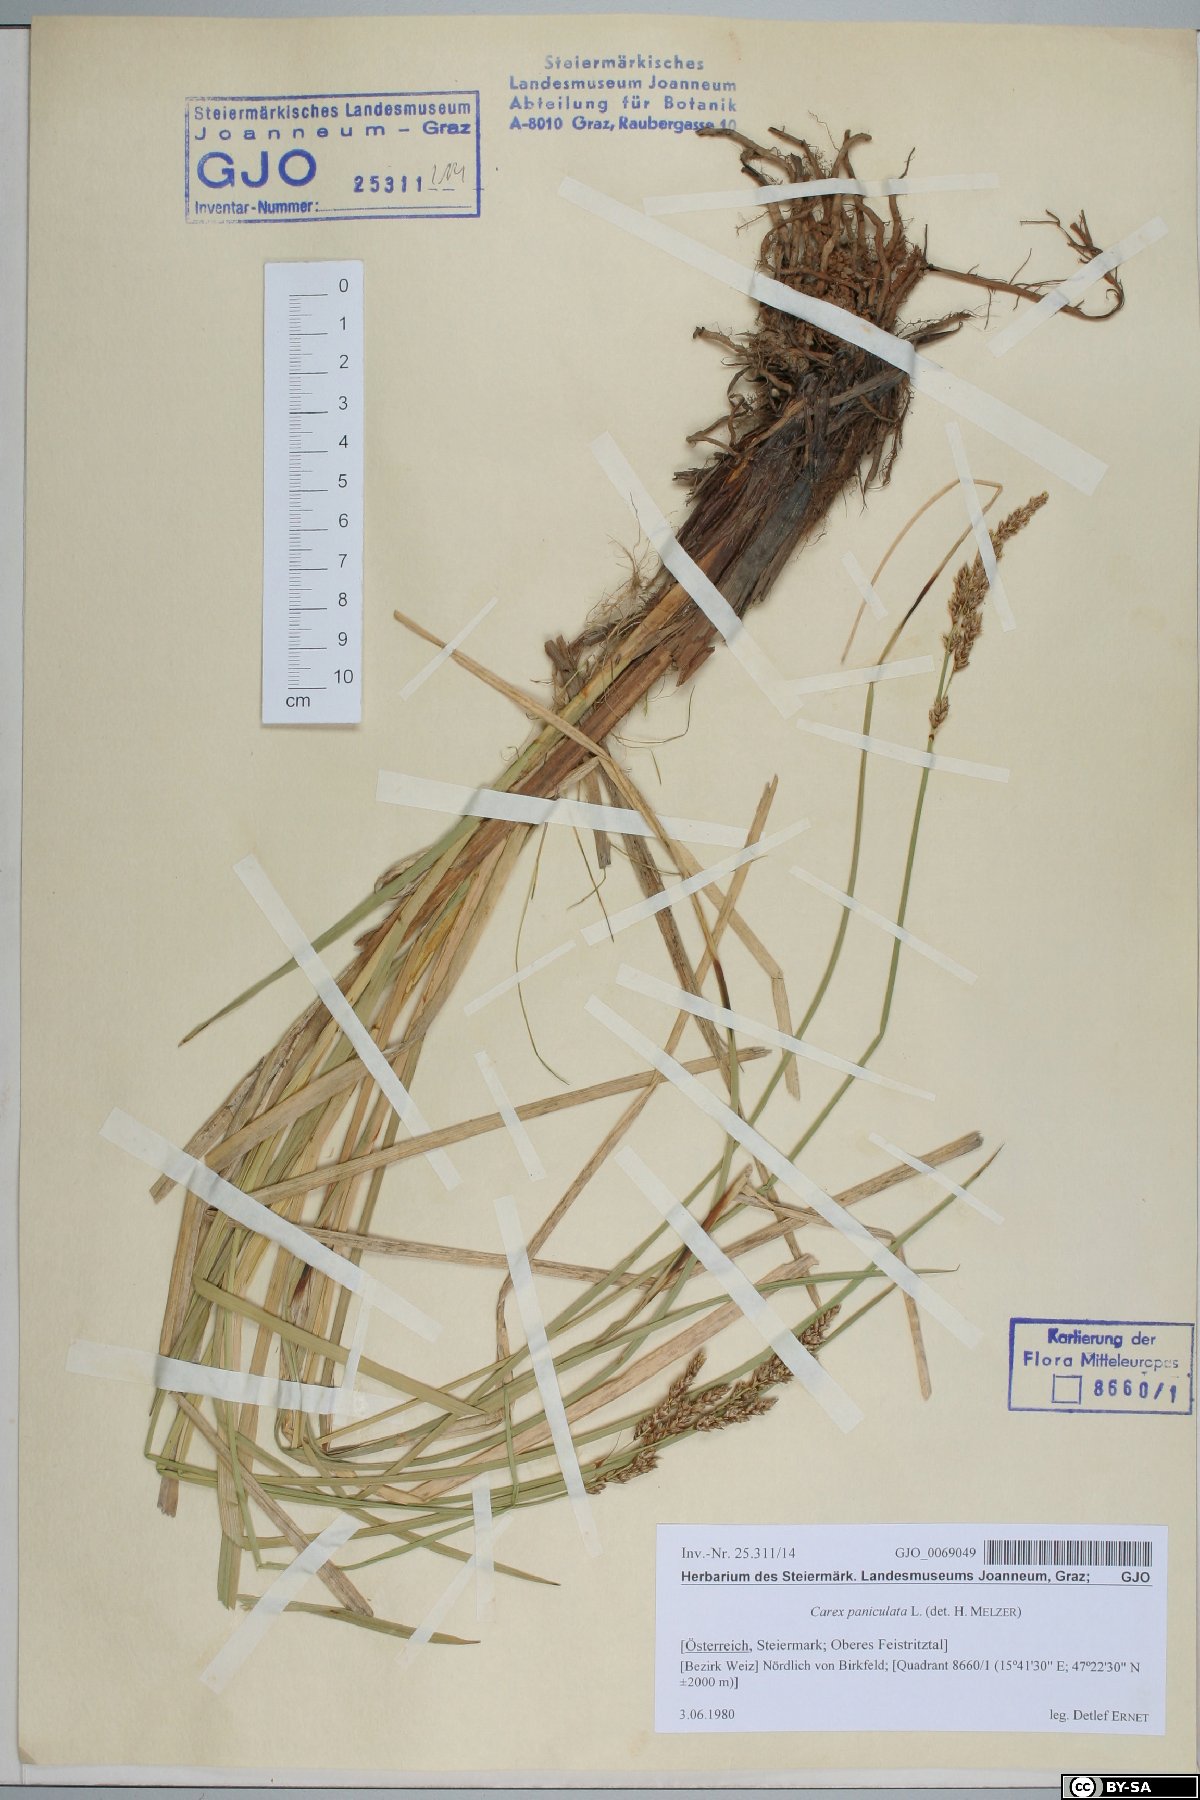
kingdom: Plantae
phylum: Tracheophyta
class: Liliopsida
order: Poales
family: Cyperaceae
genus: Carex
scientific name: Carex paniculata
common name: Greater tussock-sedge
